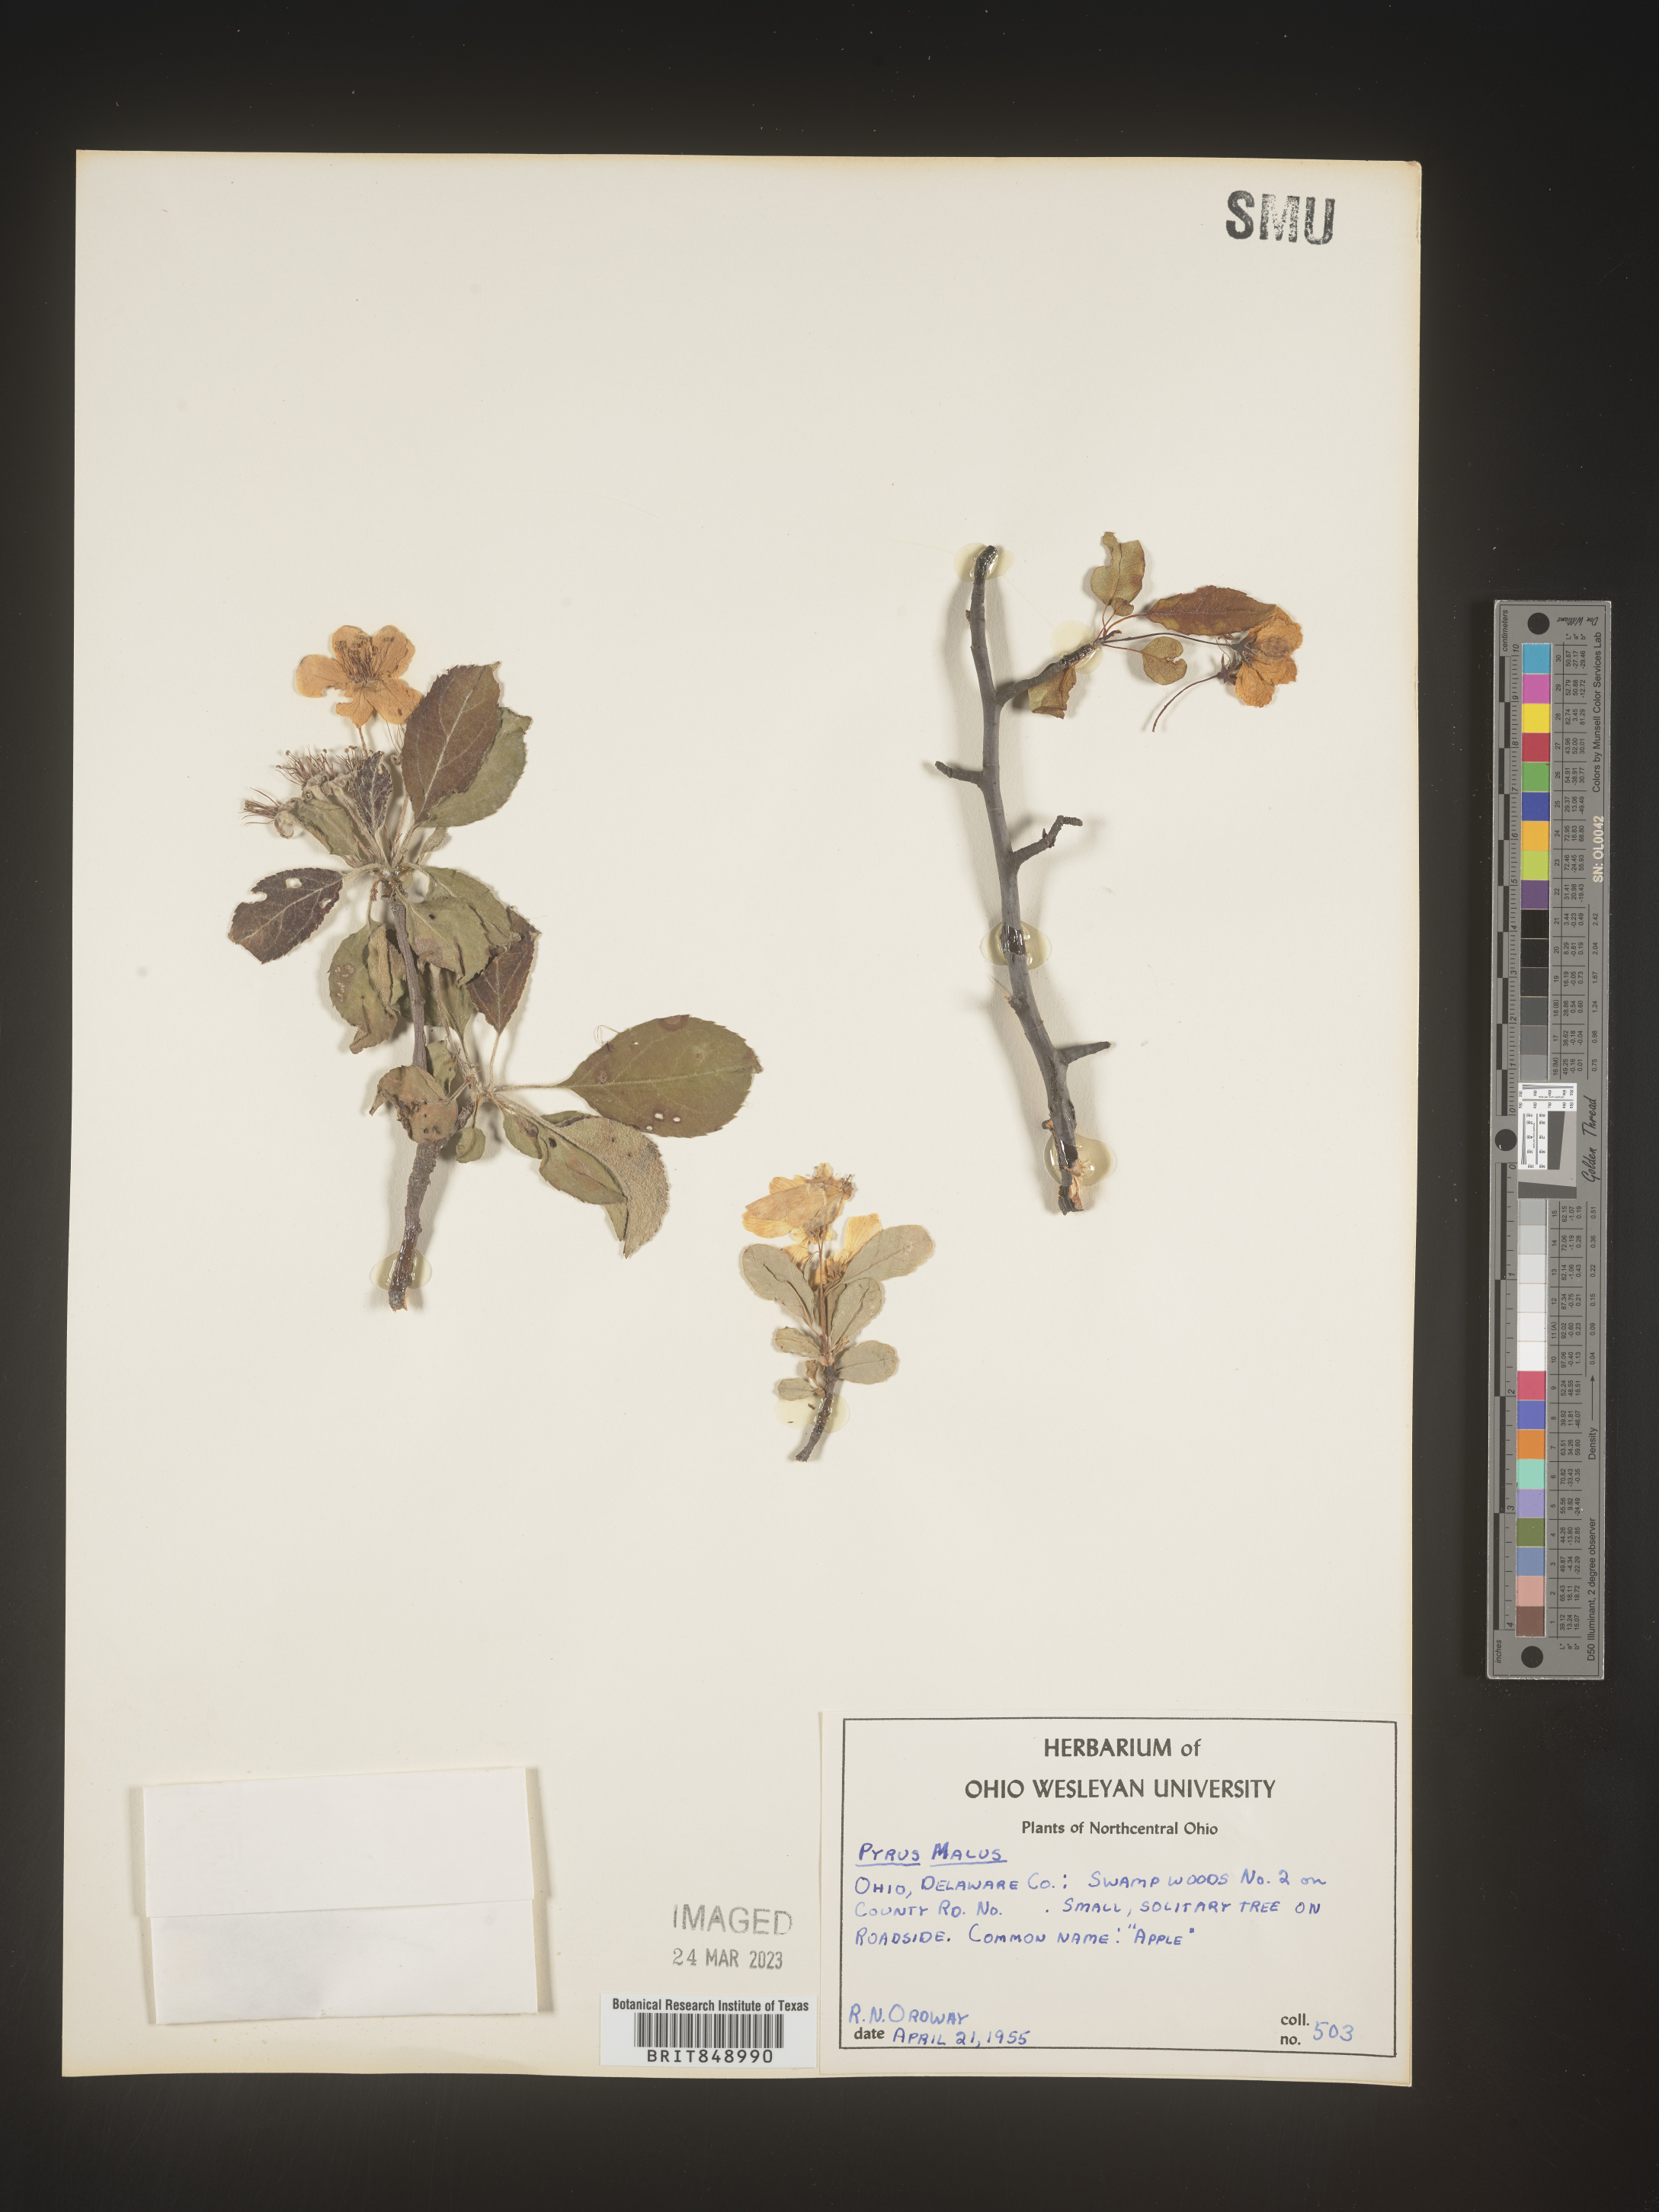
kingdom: Plantae
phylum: Tracheophyta
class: Magnoliopsida
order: Rosales
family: Rosaceae
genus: Malus
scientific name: Malus
